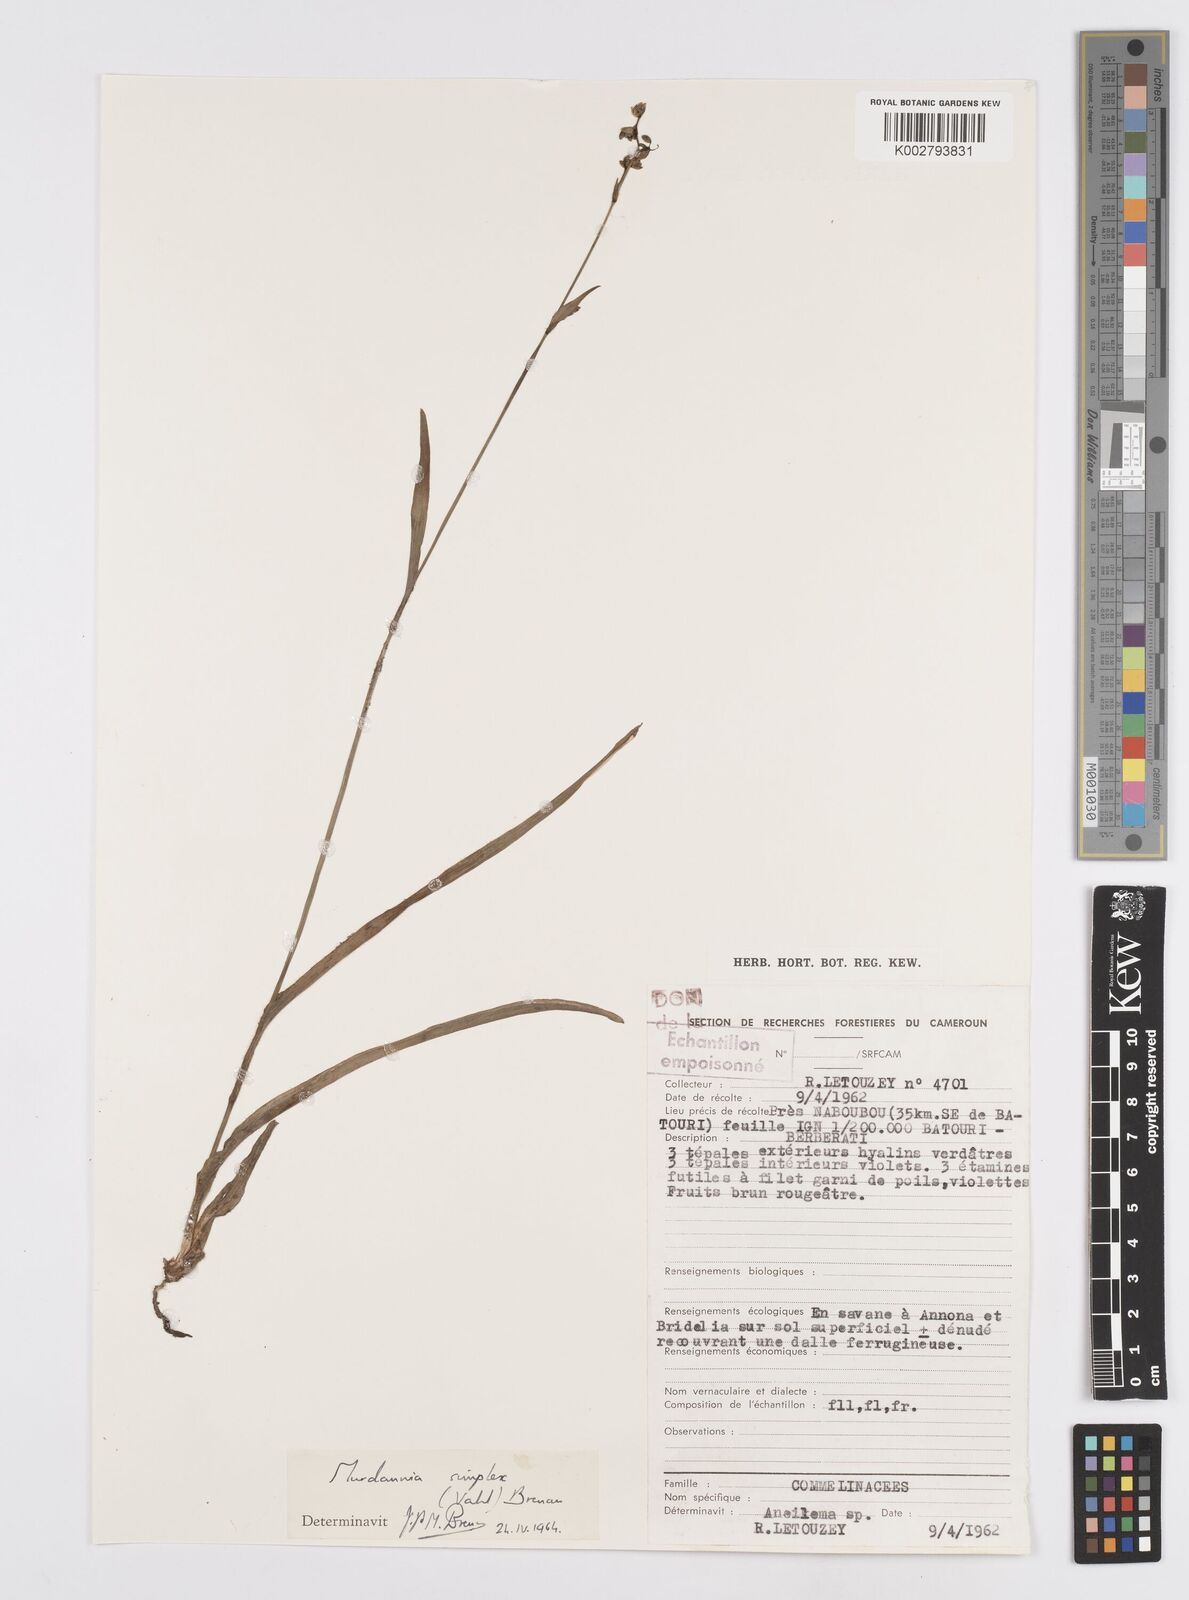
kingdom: Plantae
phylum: Tracheophyta
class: Liliopsida
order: Commelinales
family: Commelinaceae
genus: Murdannia
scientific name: Murdannia simplex
